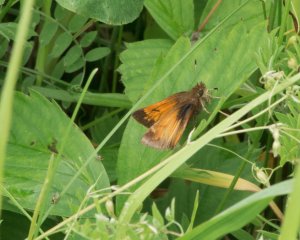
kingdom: Animalia
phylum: Arthropoda
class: Insecta
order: Lepidoptera
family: Hesperiidae
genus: Lon
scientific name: Lon hobomok
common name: Hobomok Skipper
